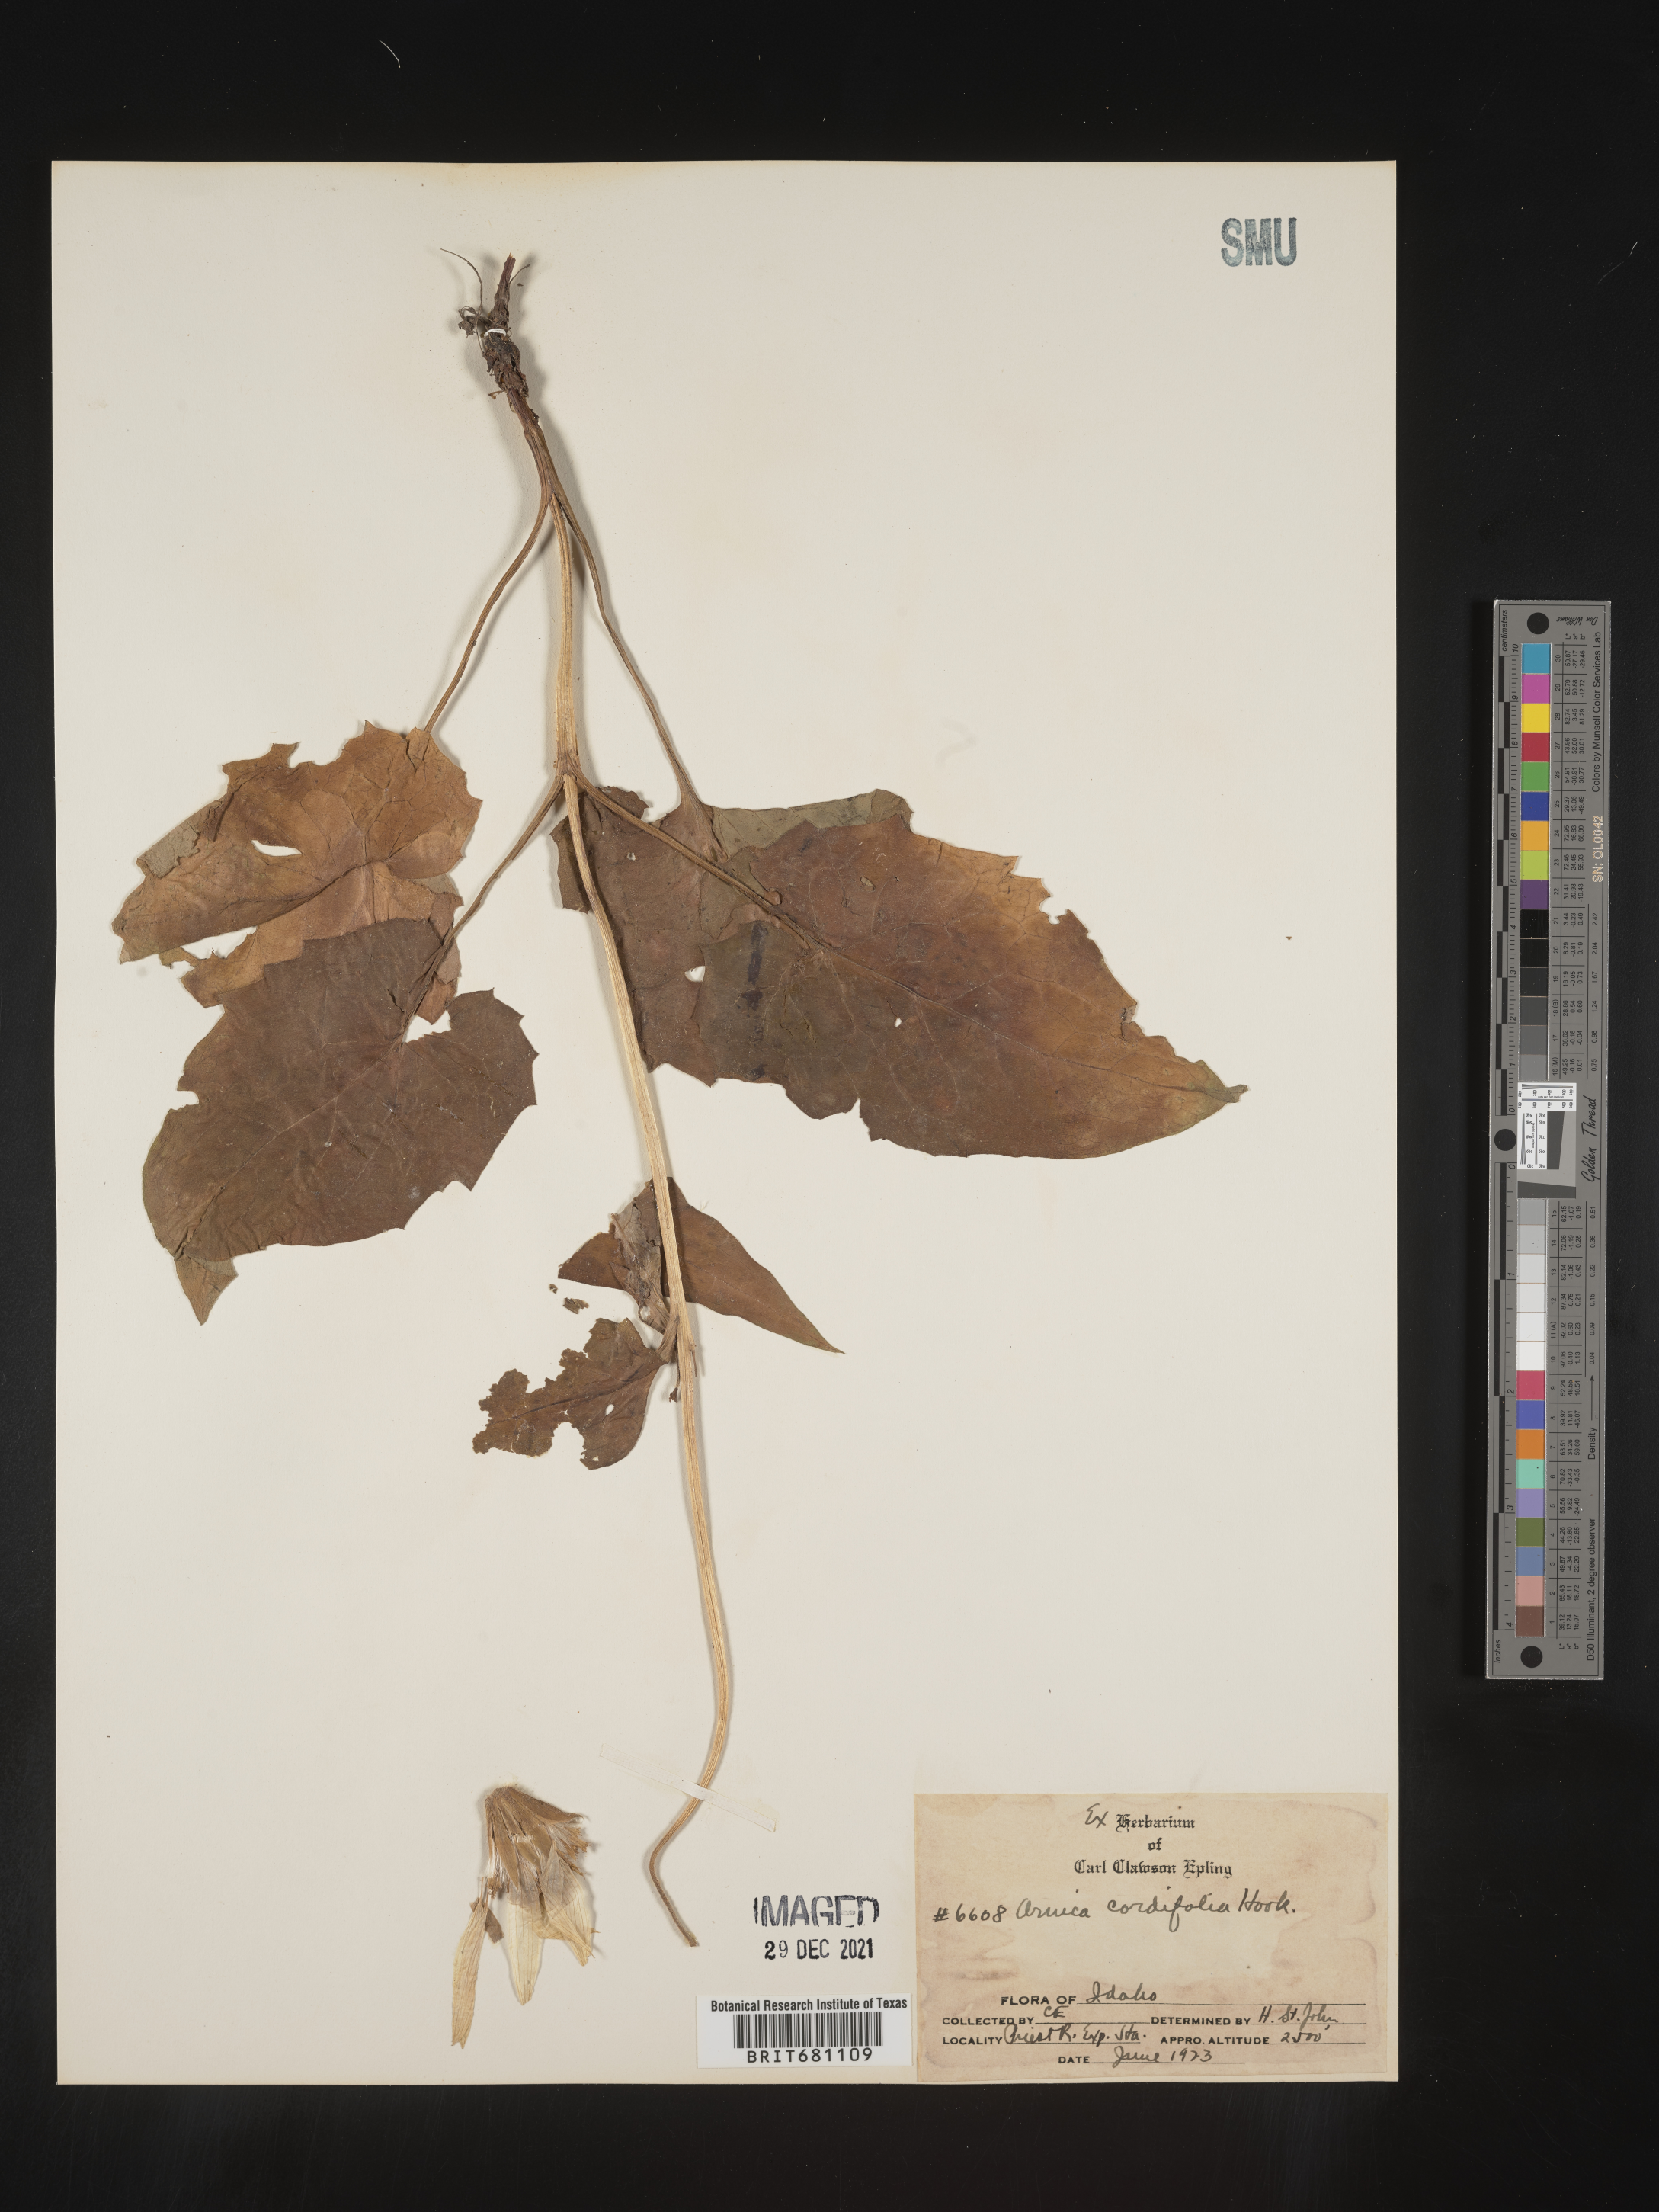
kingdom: Plantae
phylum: Tracheophyta
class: Magnoliopsida
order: Asterales
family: Asteraceae
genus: Arnica
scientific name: Arnica cordifolia
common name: Heart-leaf arnica
